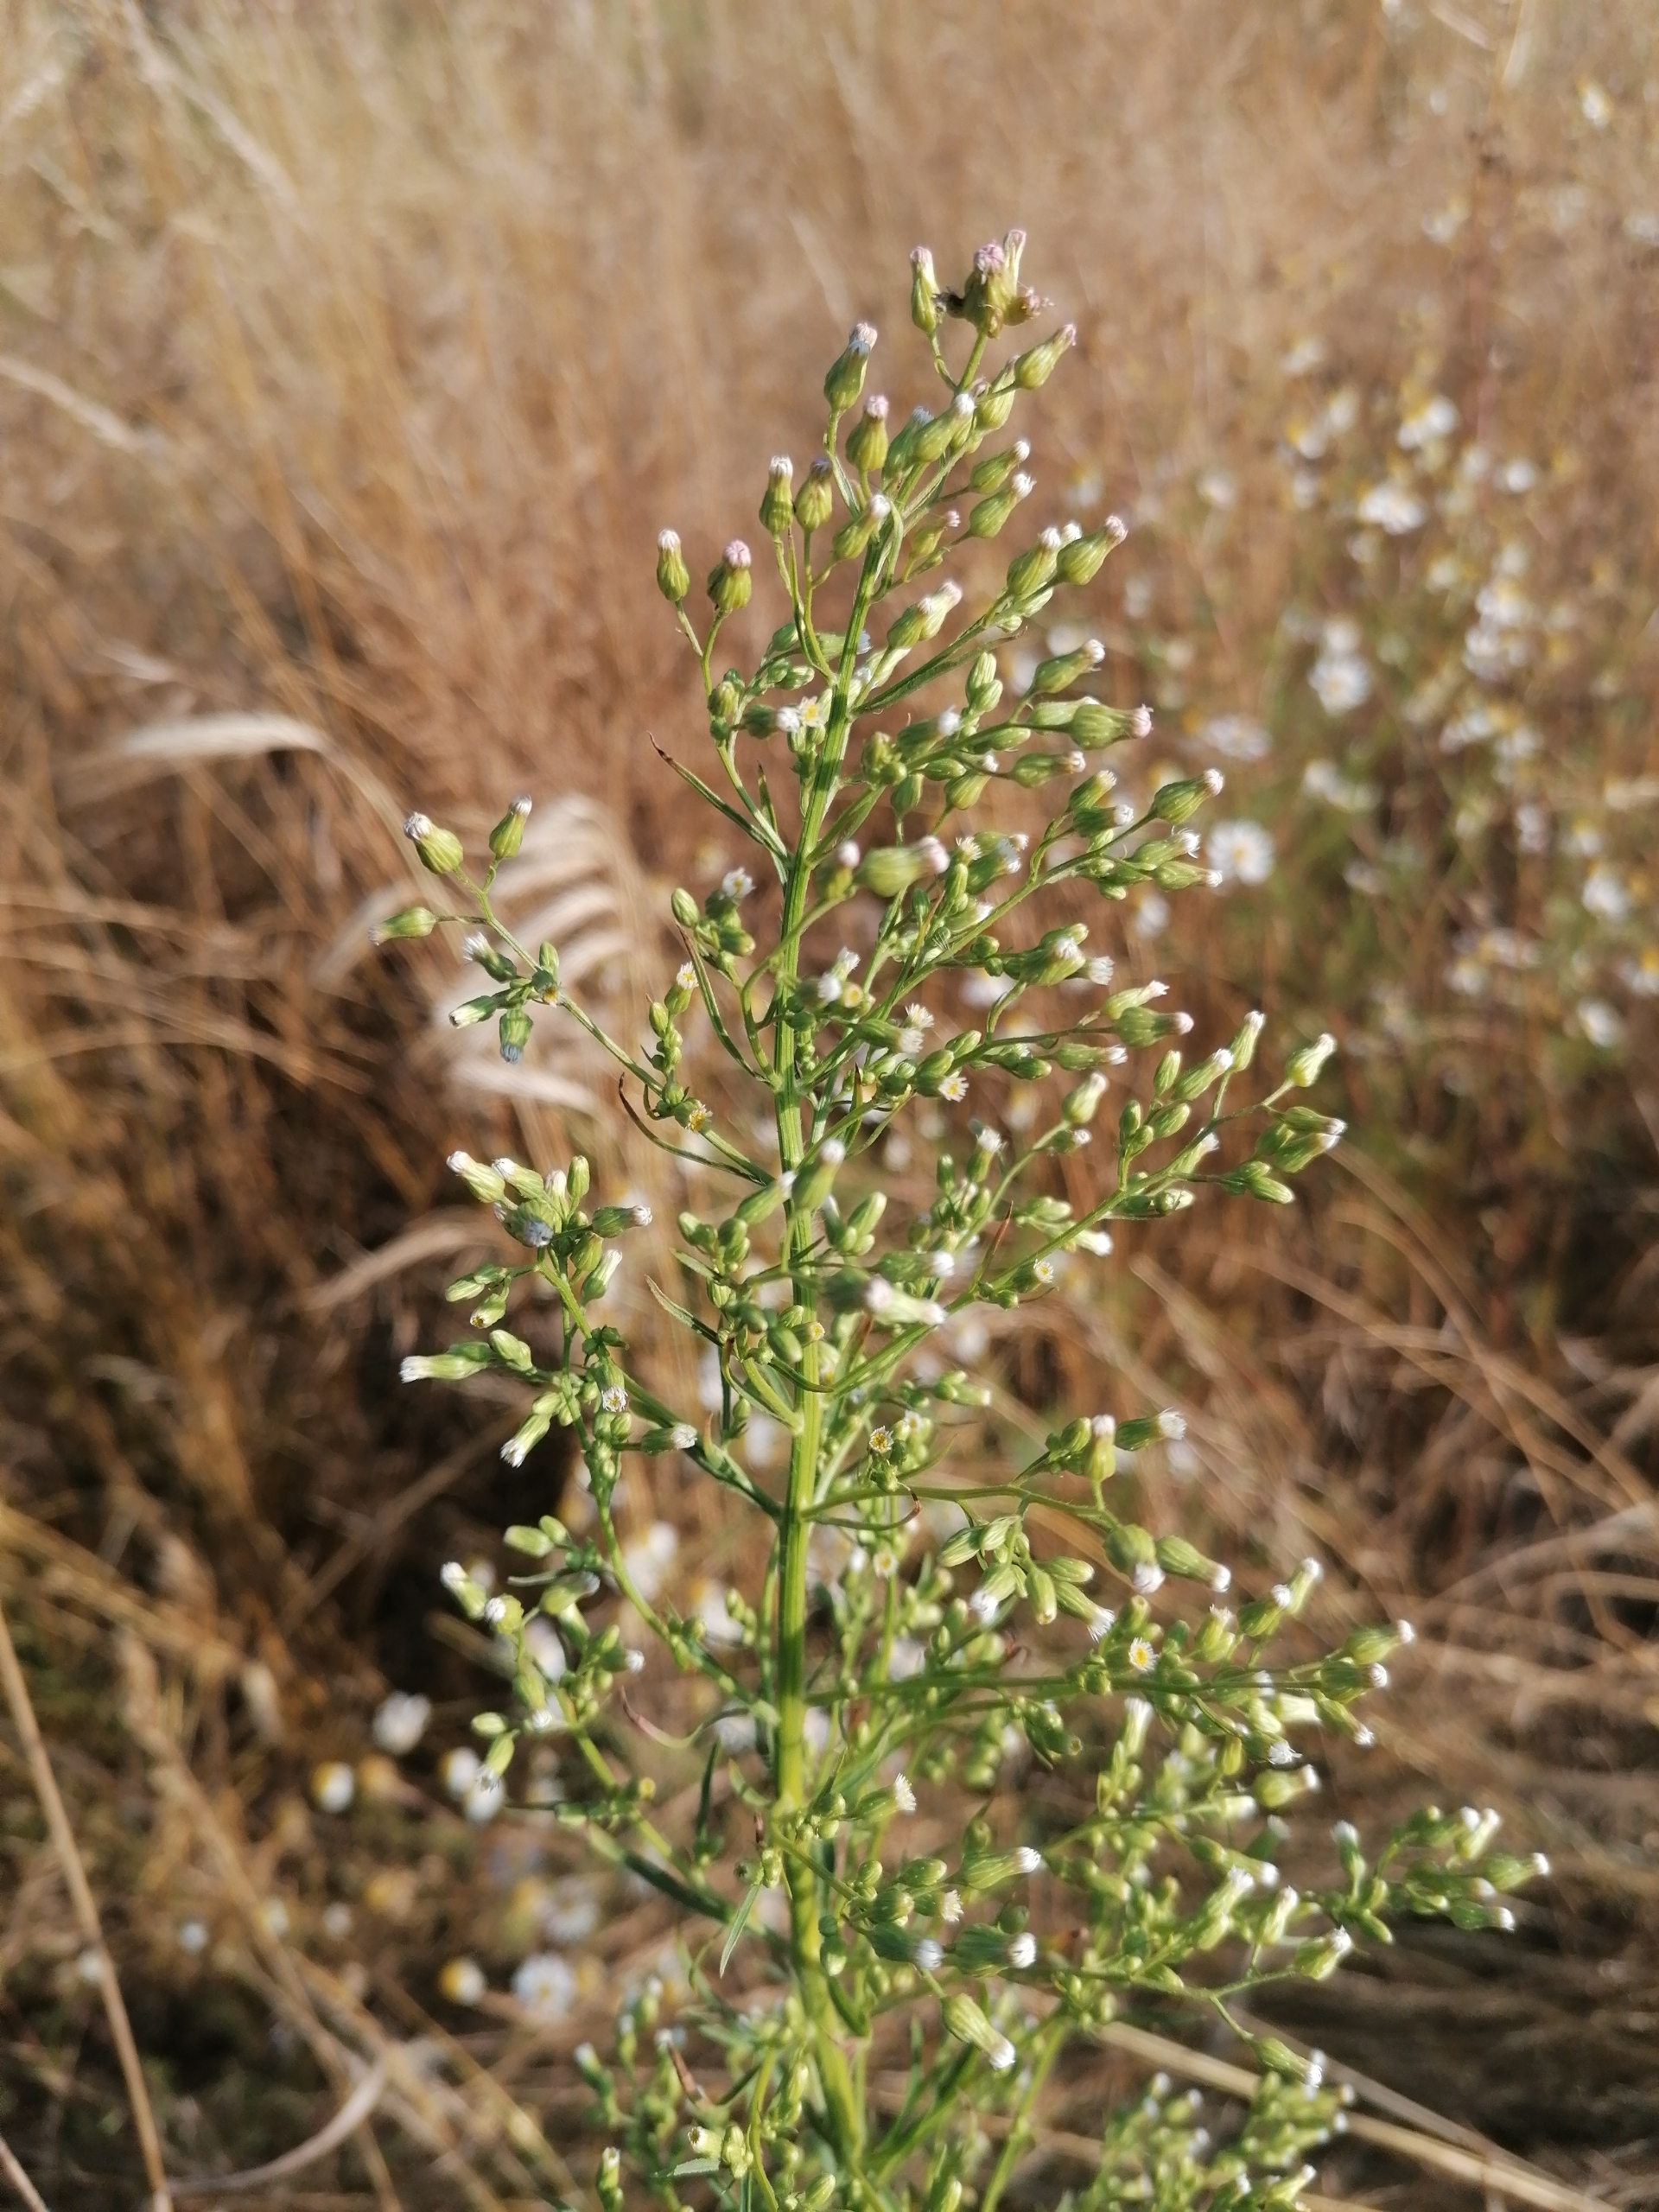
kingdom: Plantae
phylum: Tracheophyta
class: Magnoliopsida
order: Asterales
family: Asteraceae
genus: Erigeron
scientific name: Erigeron canadensis
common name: Kanadisk bakkestjerne
